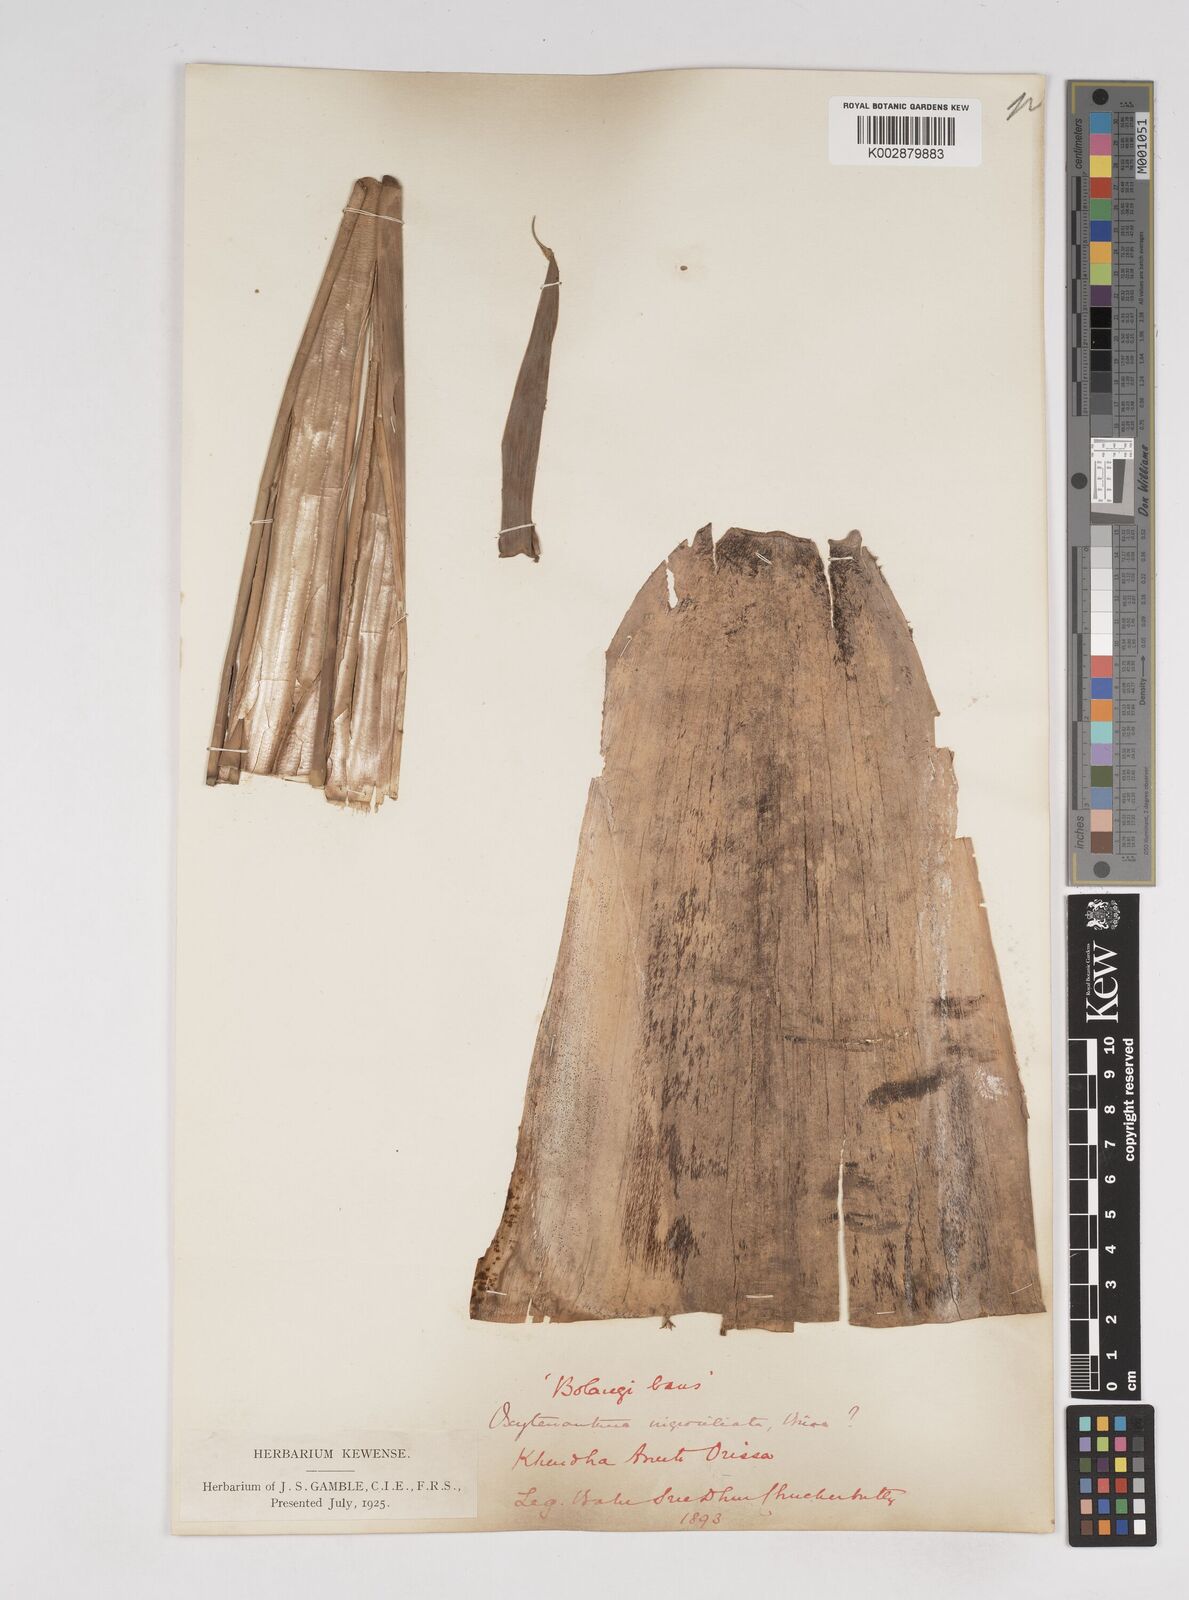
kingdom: Plantae
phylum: Tracheophyta
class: Liliopsida
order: Poales
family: Poaceae
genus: Gigantochloa
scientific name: Gigantochloa
